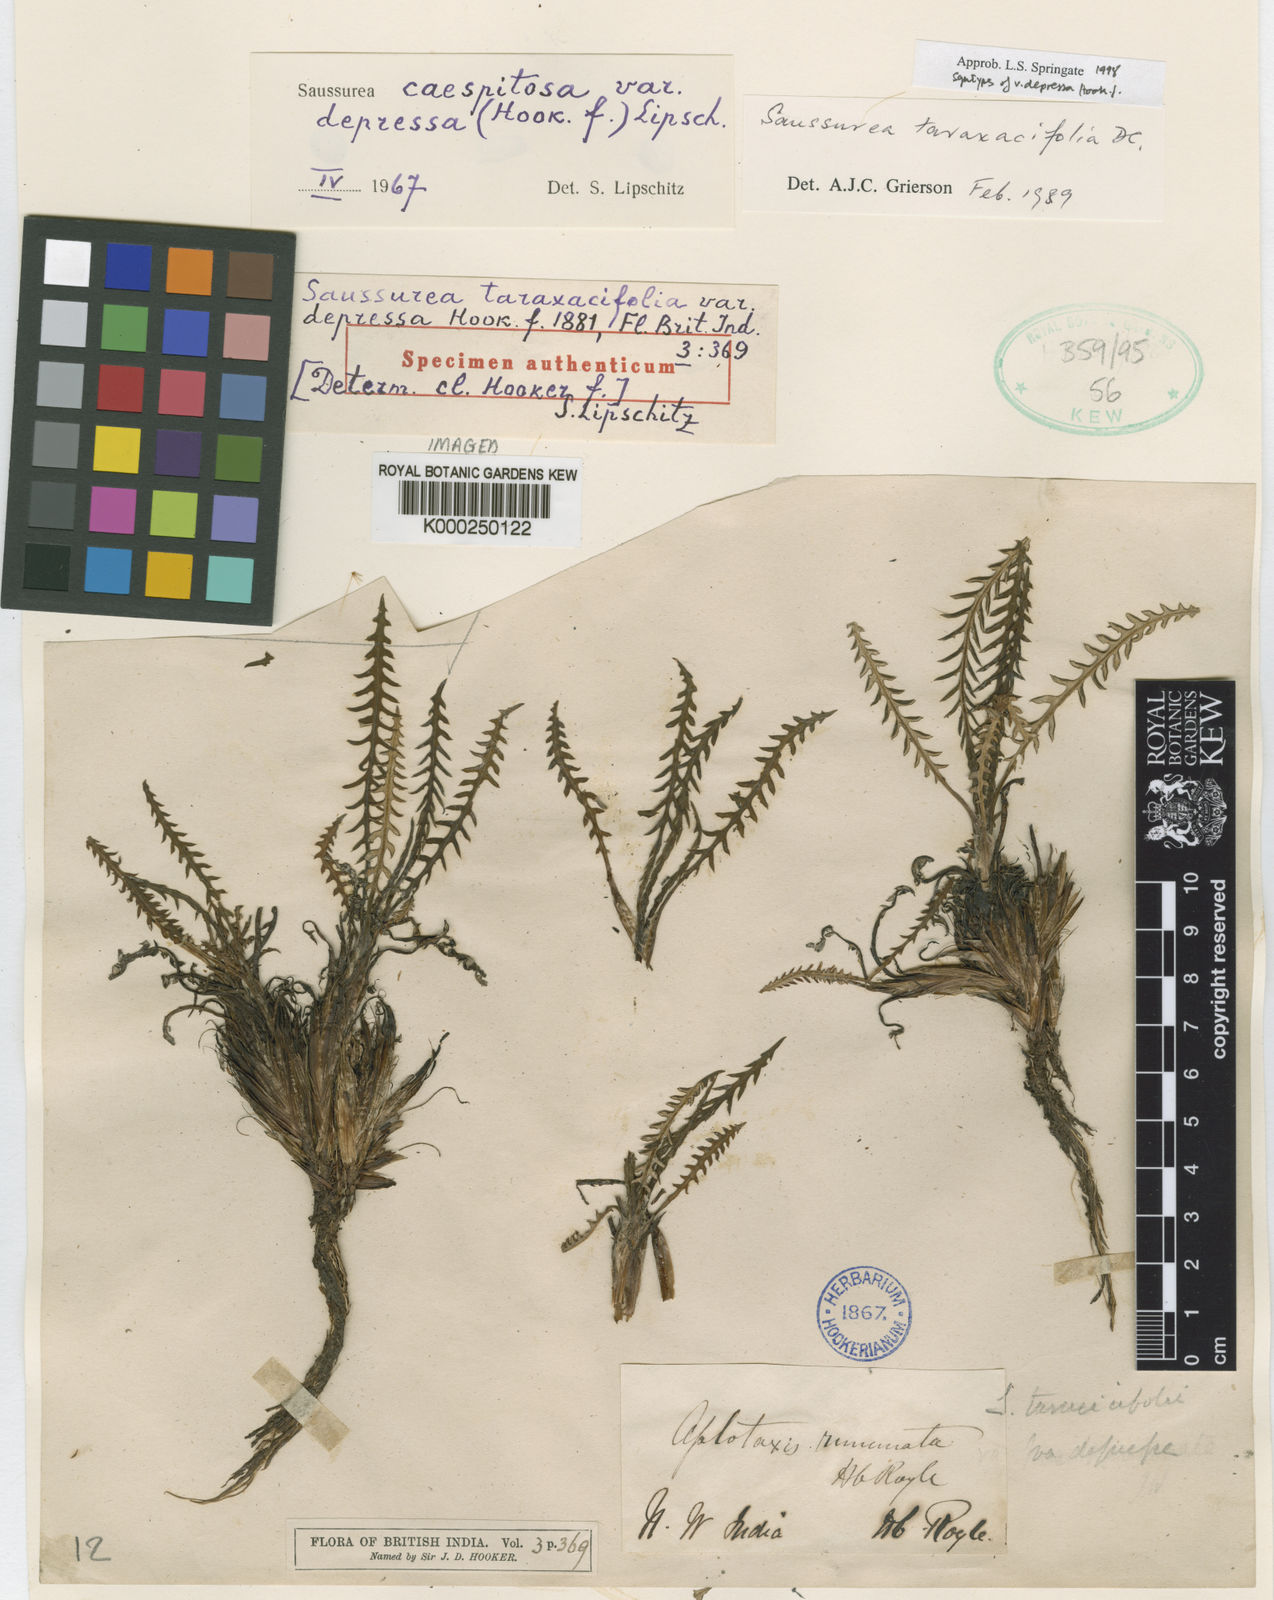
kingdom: Plantae
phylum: Tracheophyta
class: Magnoliopsida
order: Asterales
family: Asteraceae
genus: Saussurea
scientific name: Saussurea taraxacifolia
